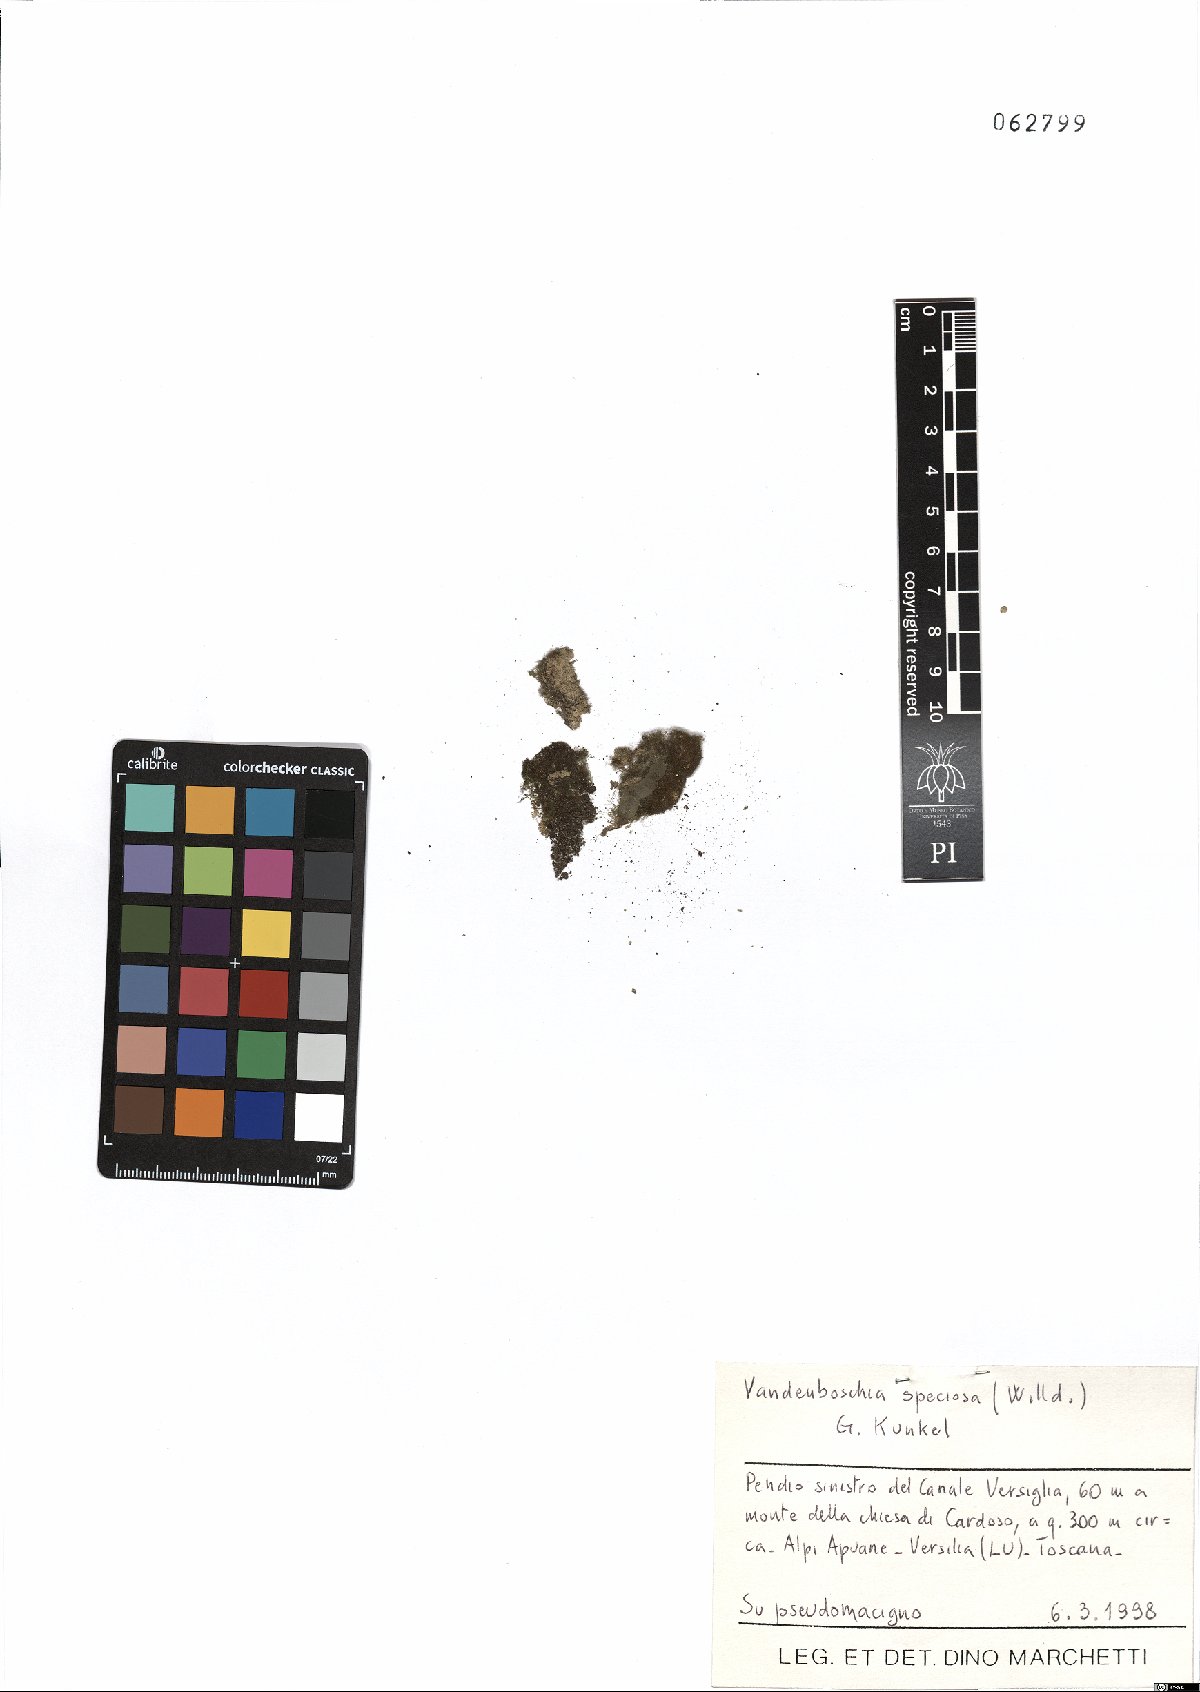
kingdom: Plantae
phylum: Tracheophyta
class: Polypodiopsida
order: Hymenophyllales
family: Hymenophyllaceae
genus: Vandenboschia
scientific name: Vandenboschia speciosa
